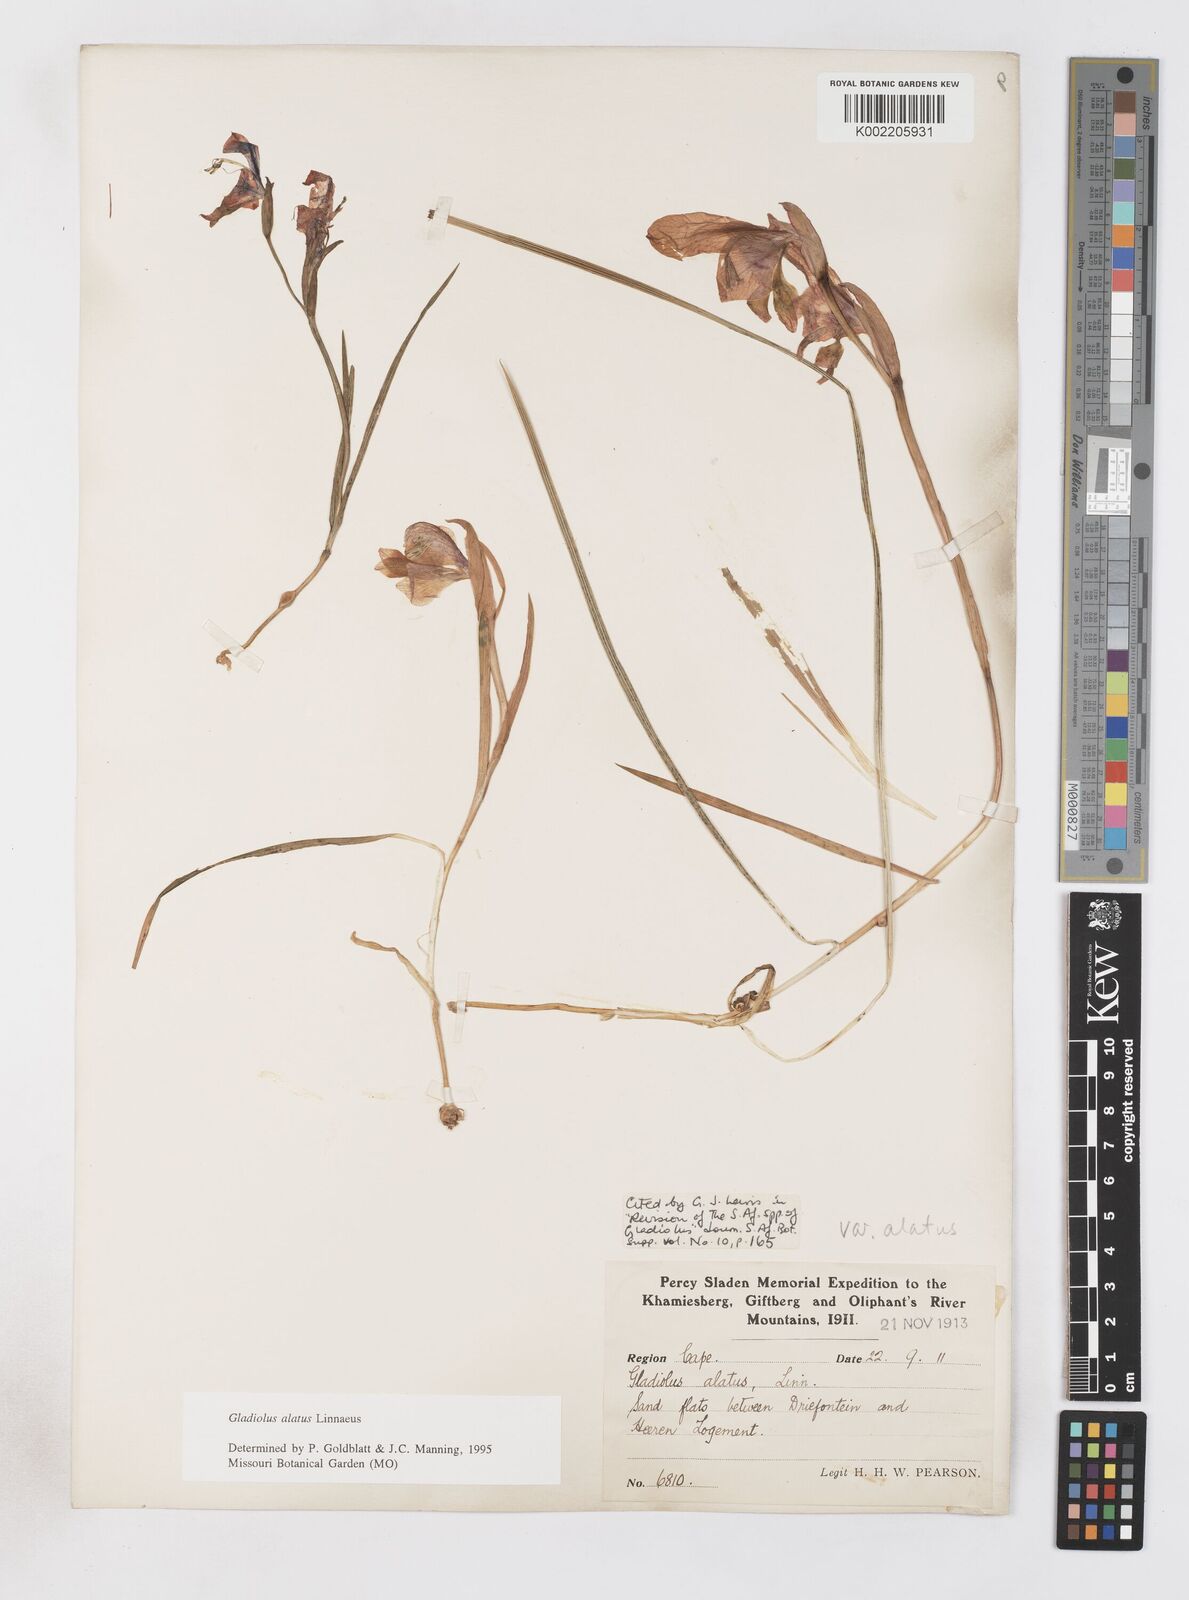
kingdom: Plantae
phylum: Tracheophyta
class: Liliopsida
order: Asparagales
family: Iridaceae
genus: Gladiolus
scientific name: Gladiolus alatus
